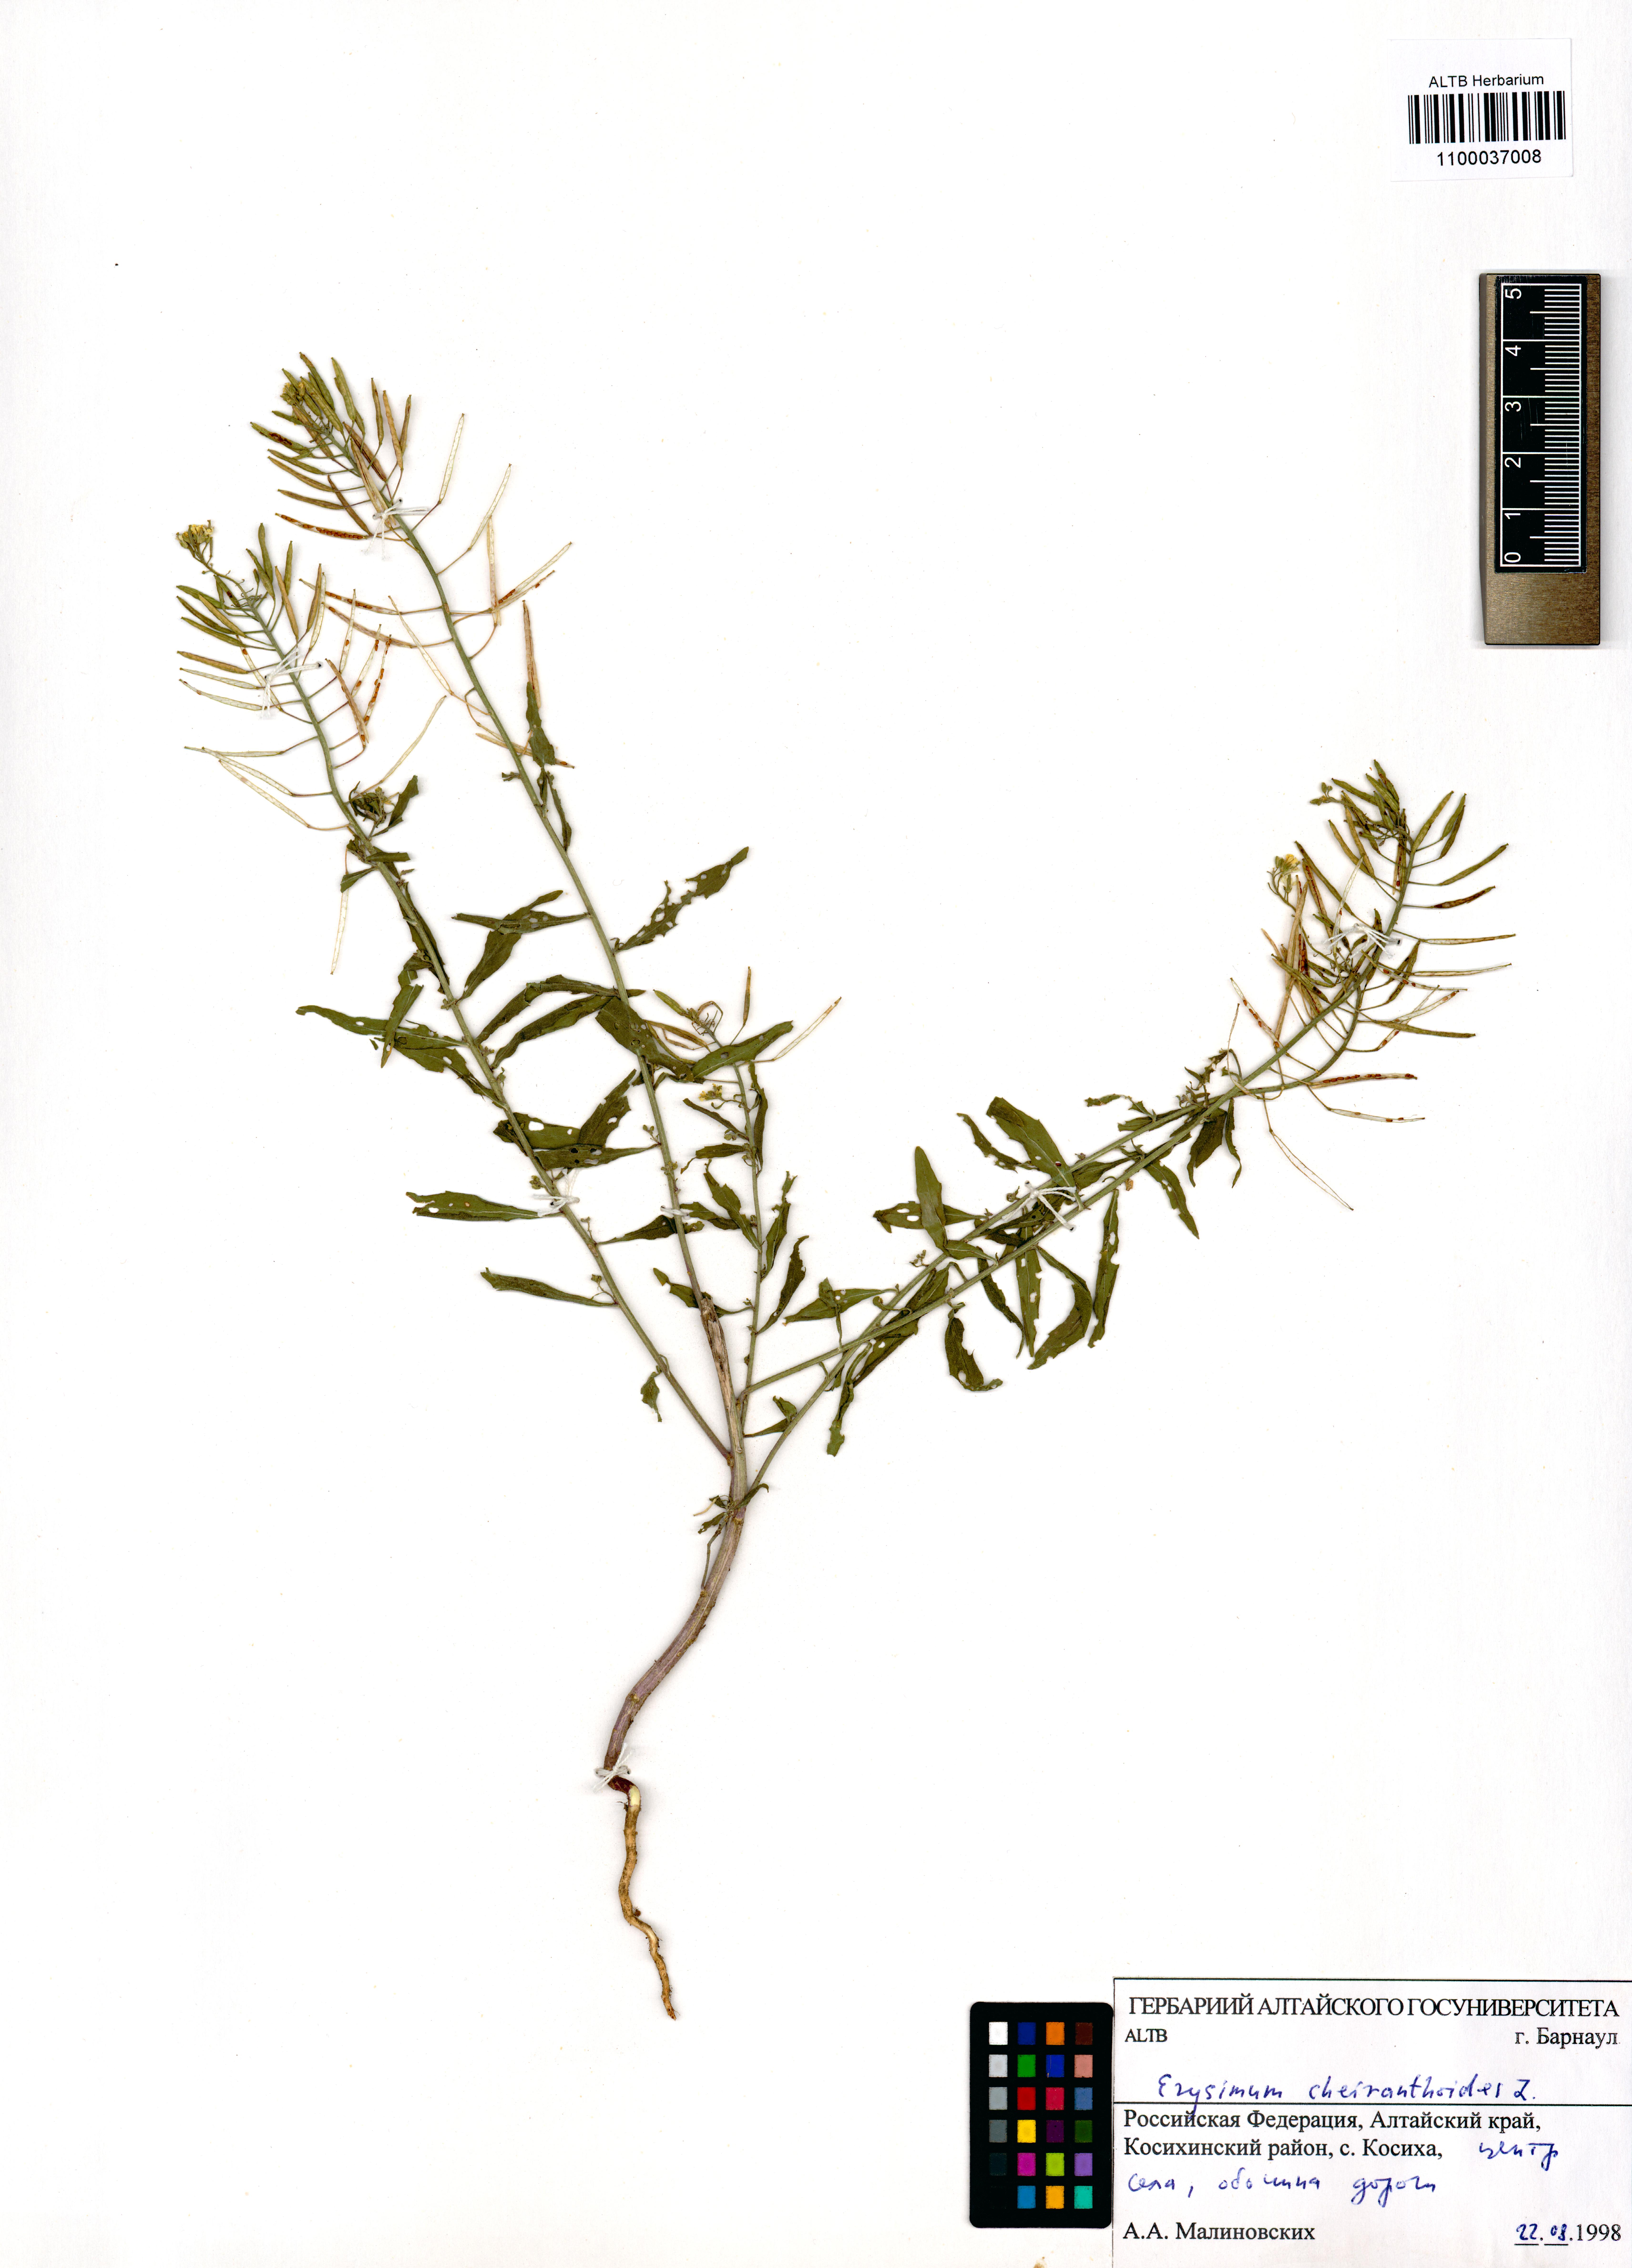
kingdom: Plantae
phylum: Tracheophyta
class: Magnoliopsida
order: Brassicales
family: Brassicaceae
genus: Erysimum
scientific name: Erysimum cheiranthoides
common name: Treacle mustard
